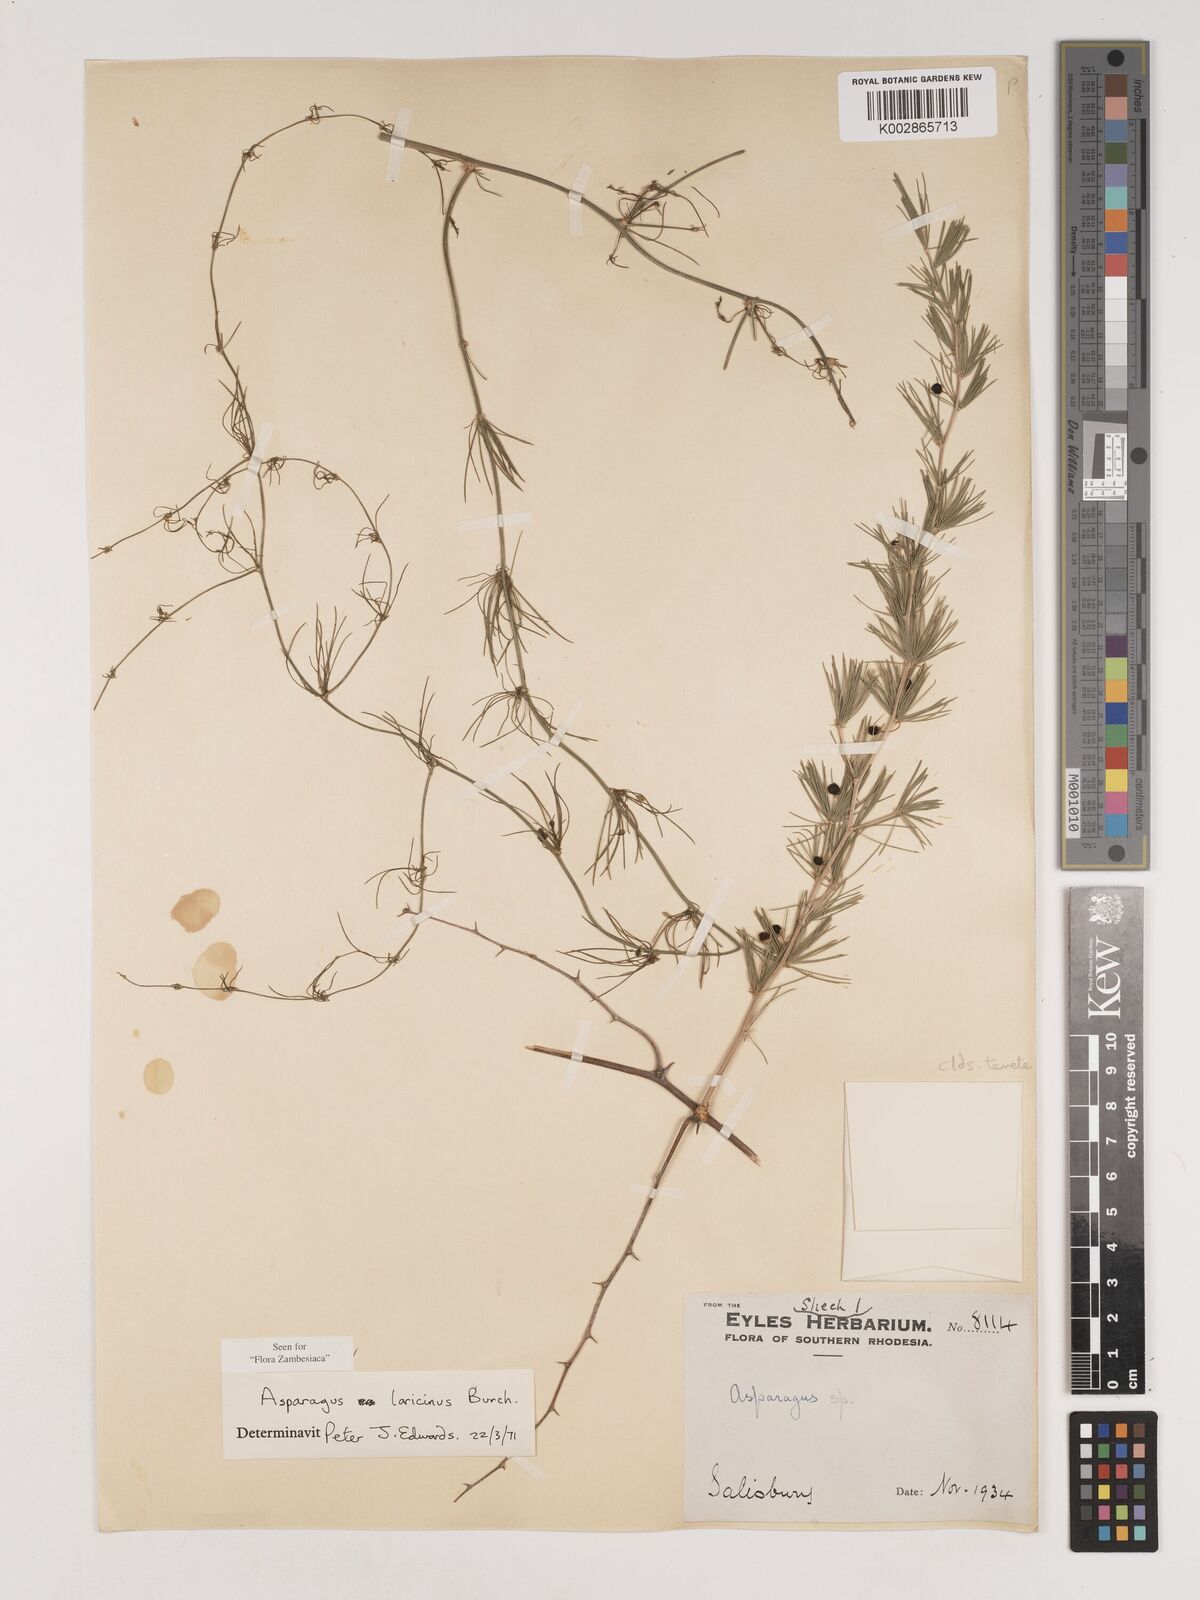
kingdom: Plantae
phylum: Tracheophyta
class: Liliopsida
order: Asparagales
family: Asparagaceae
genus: Asparagus
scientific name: Asparagus laricinus
